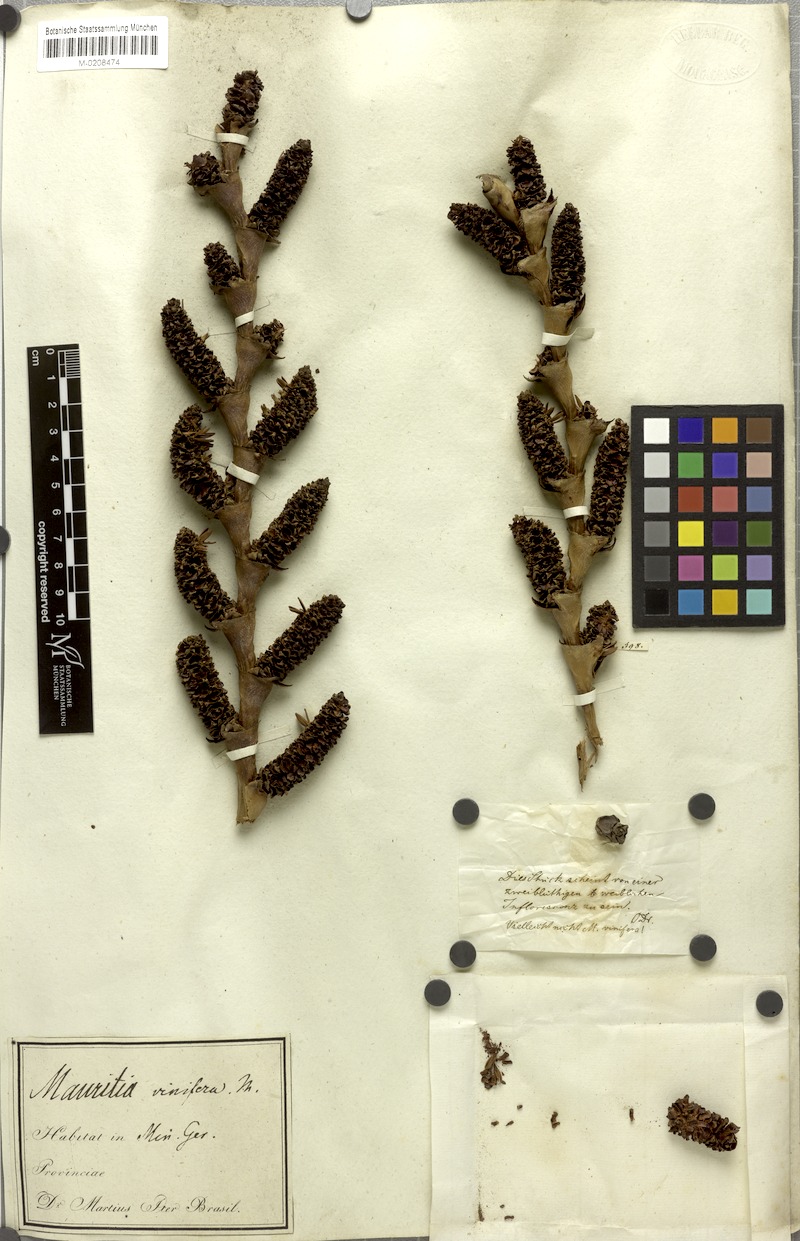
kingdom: Plantae
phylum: Tracheophyta
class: Liliopsida
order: Arecales
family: Arecaceae
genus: Mauritia
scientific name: Mauritia flexuosa
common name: Tree-of-life
